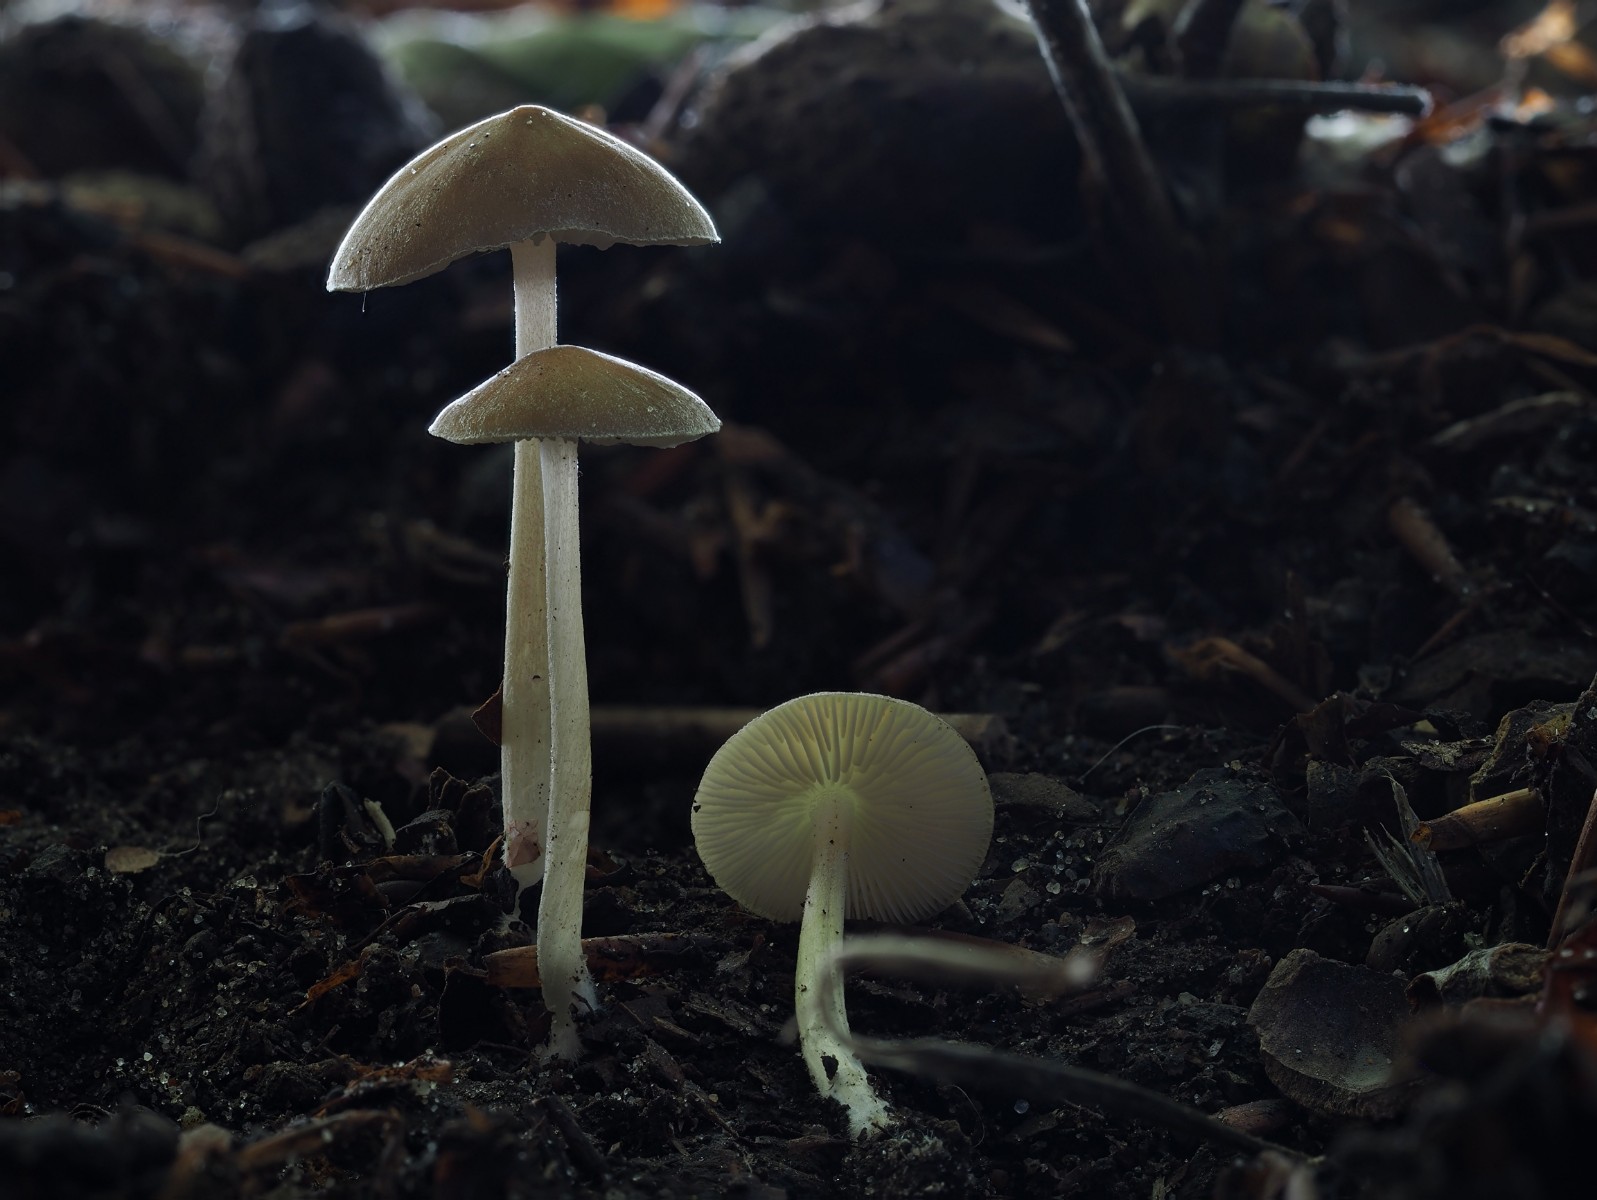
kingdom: Fungi
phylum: Basidiomycota
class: Agaricomycetes
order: Agaricales
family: Porotheleaceae
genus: Hydropodia
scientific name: Hydropodia subalpina
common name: vår-fnugfod
